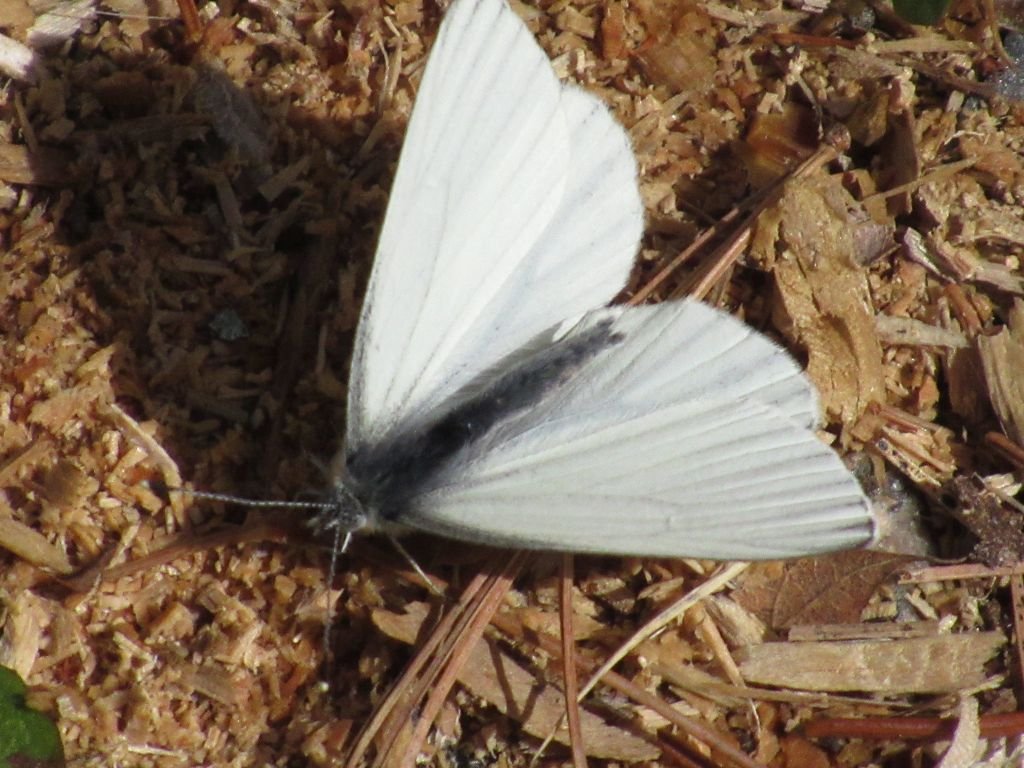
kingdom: Animalia
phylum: Arthropoda
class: Insecta
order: Lepidoptera
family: Pieridae
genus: Pieris
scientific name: Pieris oleracea
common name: Mustard White
